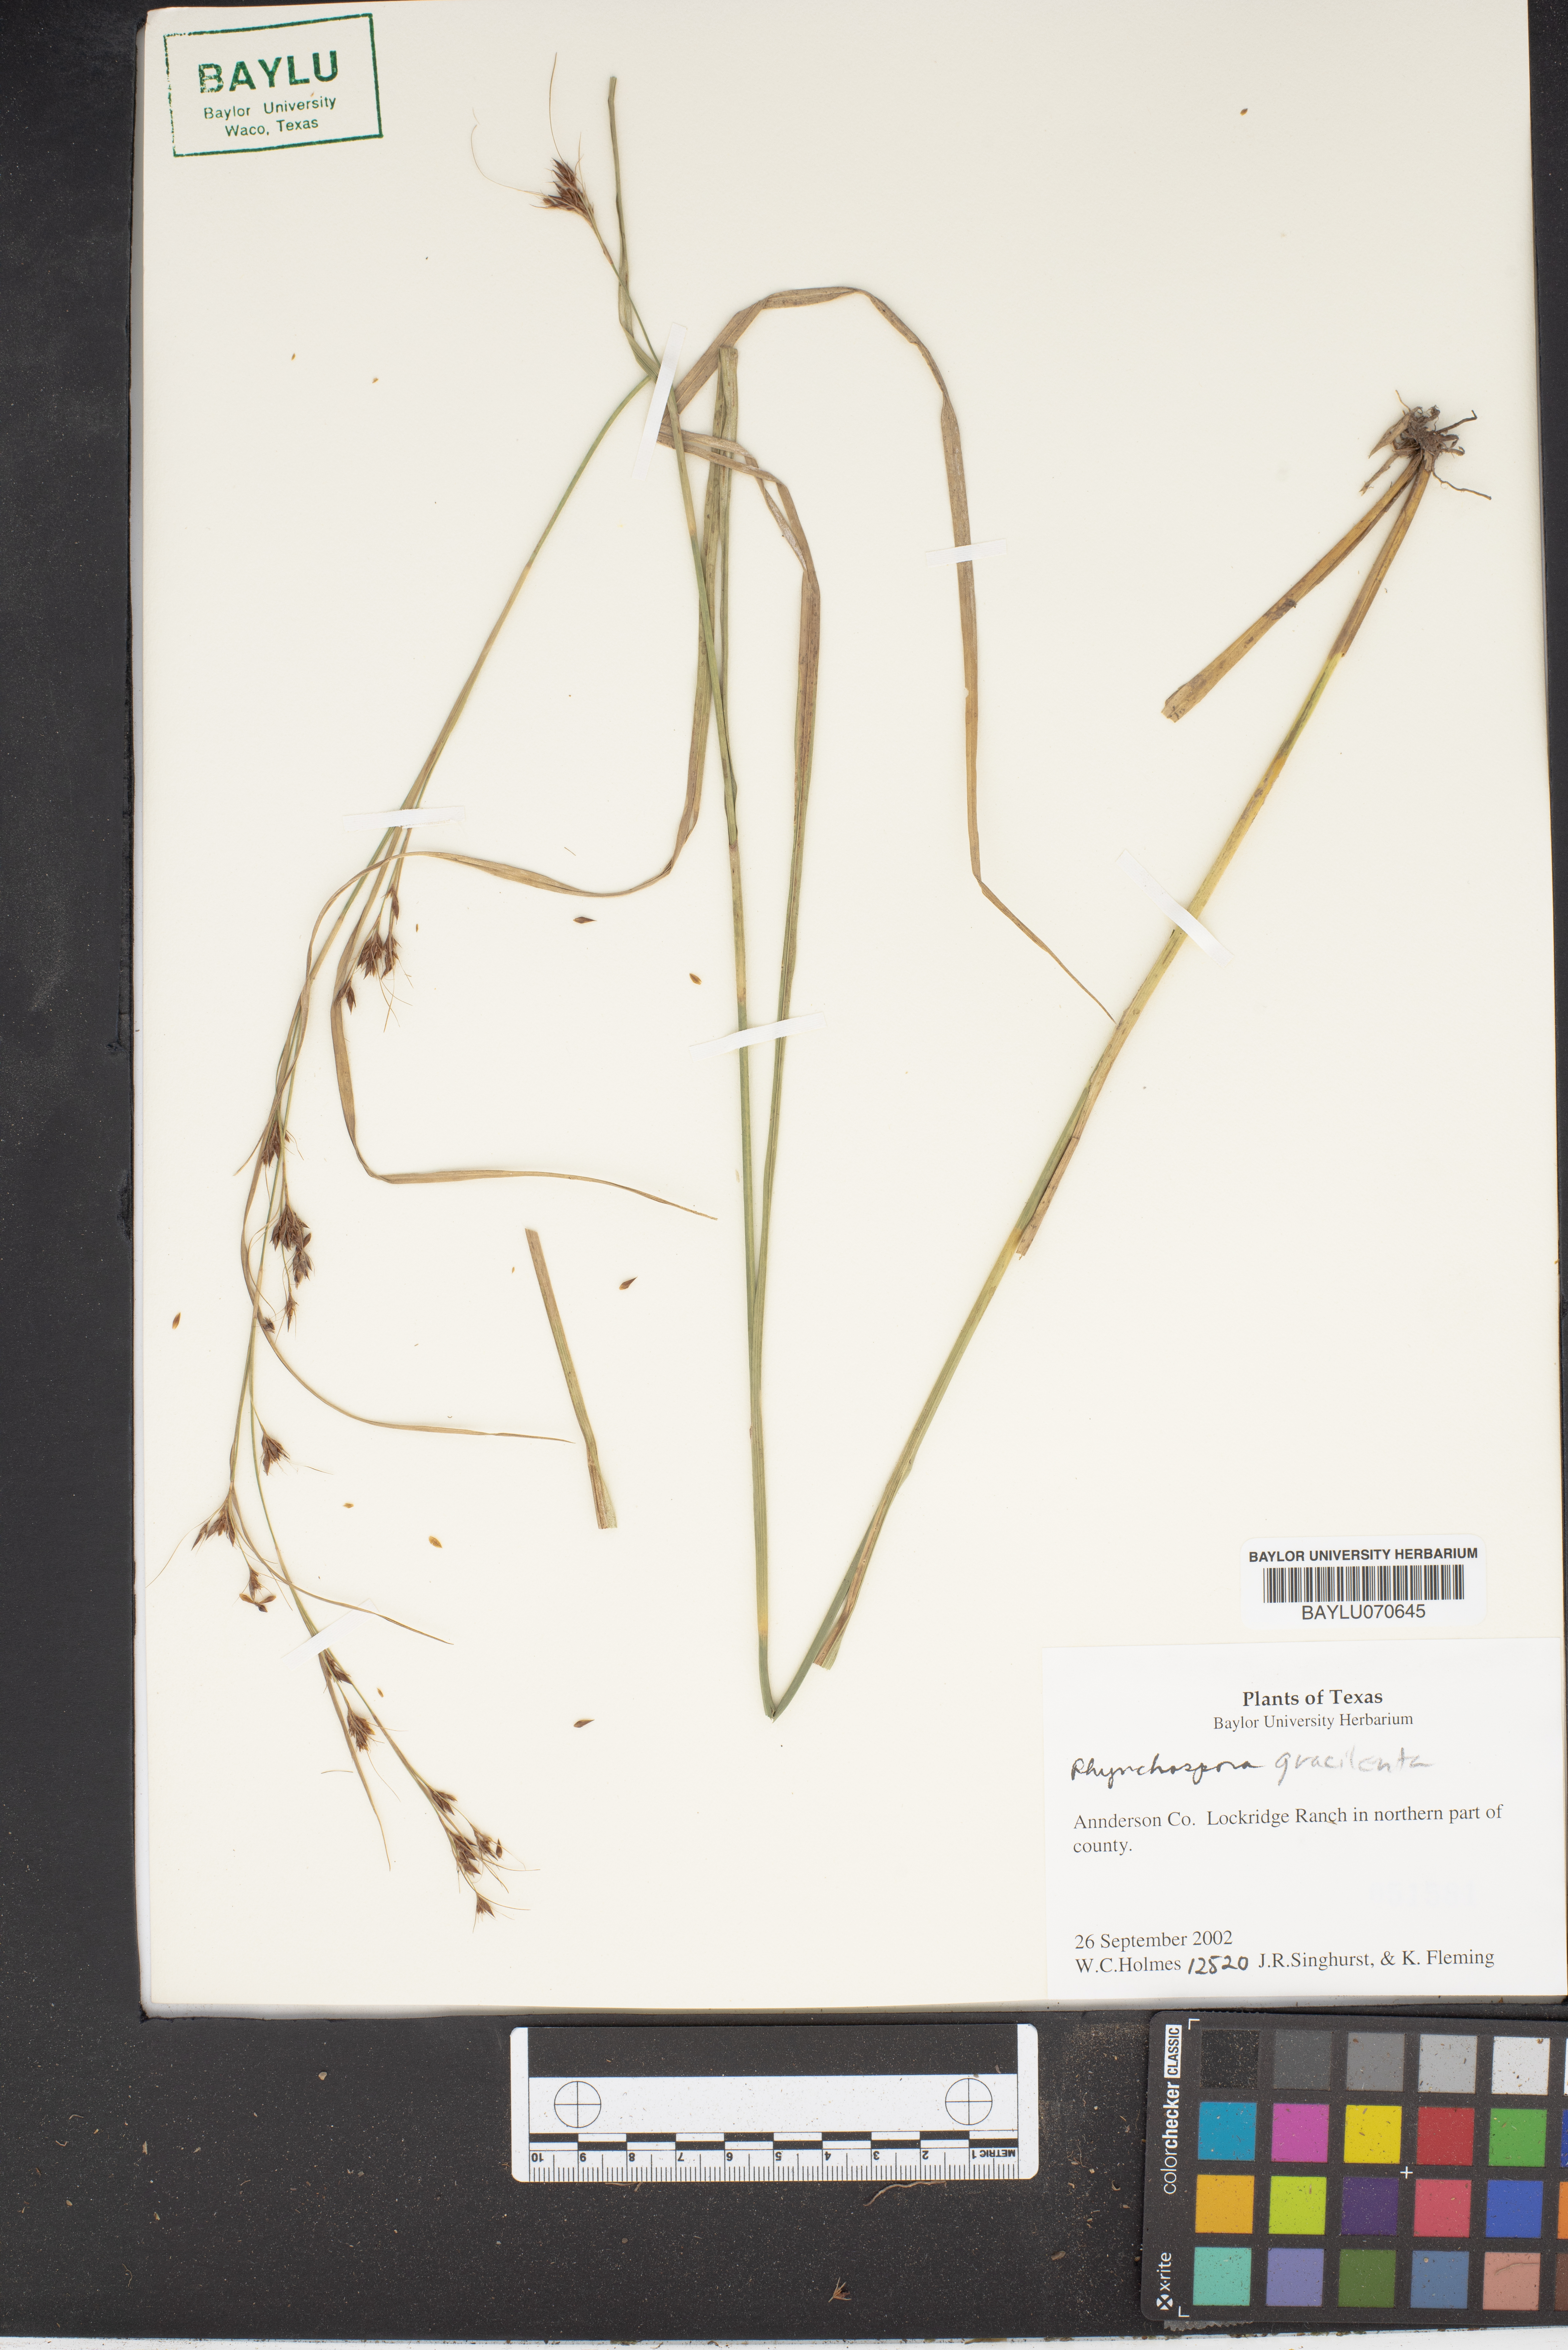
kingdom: Plantae
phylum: Tracheophyta
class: Liliopsida
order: Poales
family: Cyperaceae
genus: Rhynchospora
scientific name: Rhynchospora gracilenta
